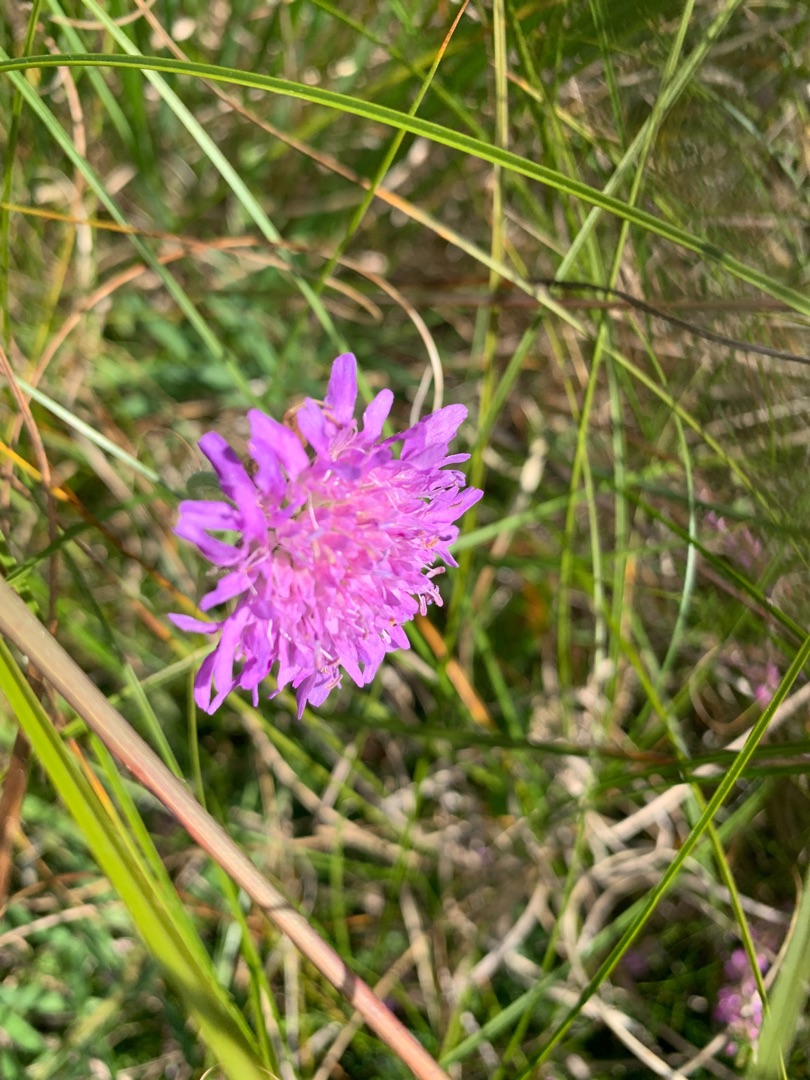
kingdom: Plantae
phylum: Tracheophyta
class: Magnoliopsida
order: Dipsacales
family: Caprifoliaceae
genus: Knautia
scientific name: Knautia arvensis
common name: Blåhat
